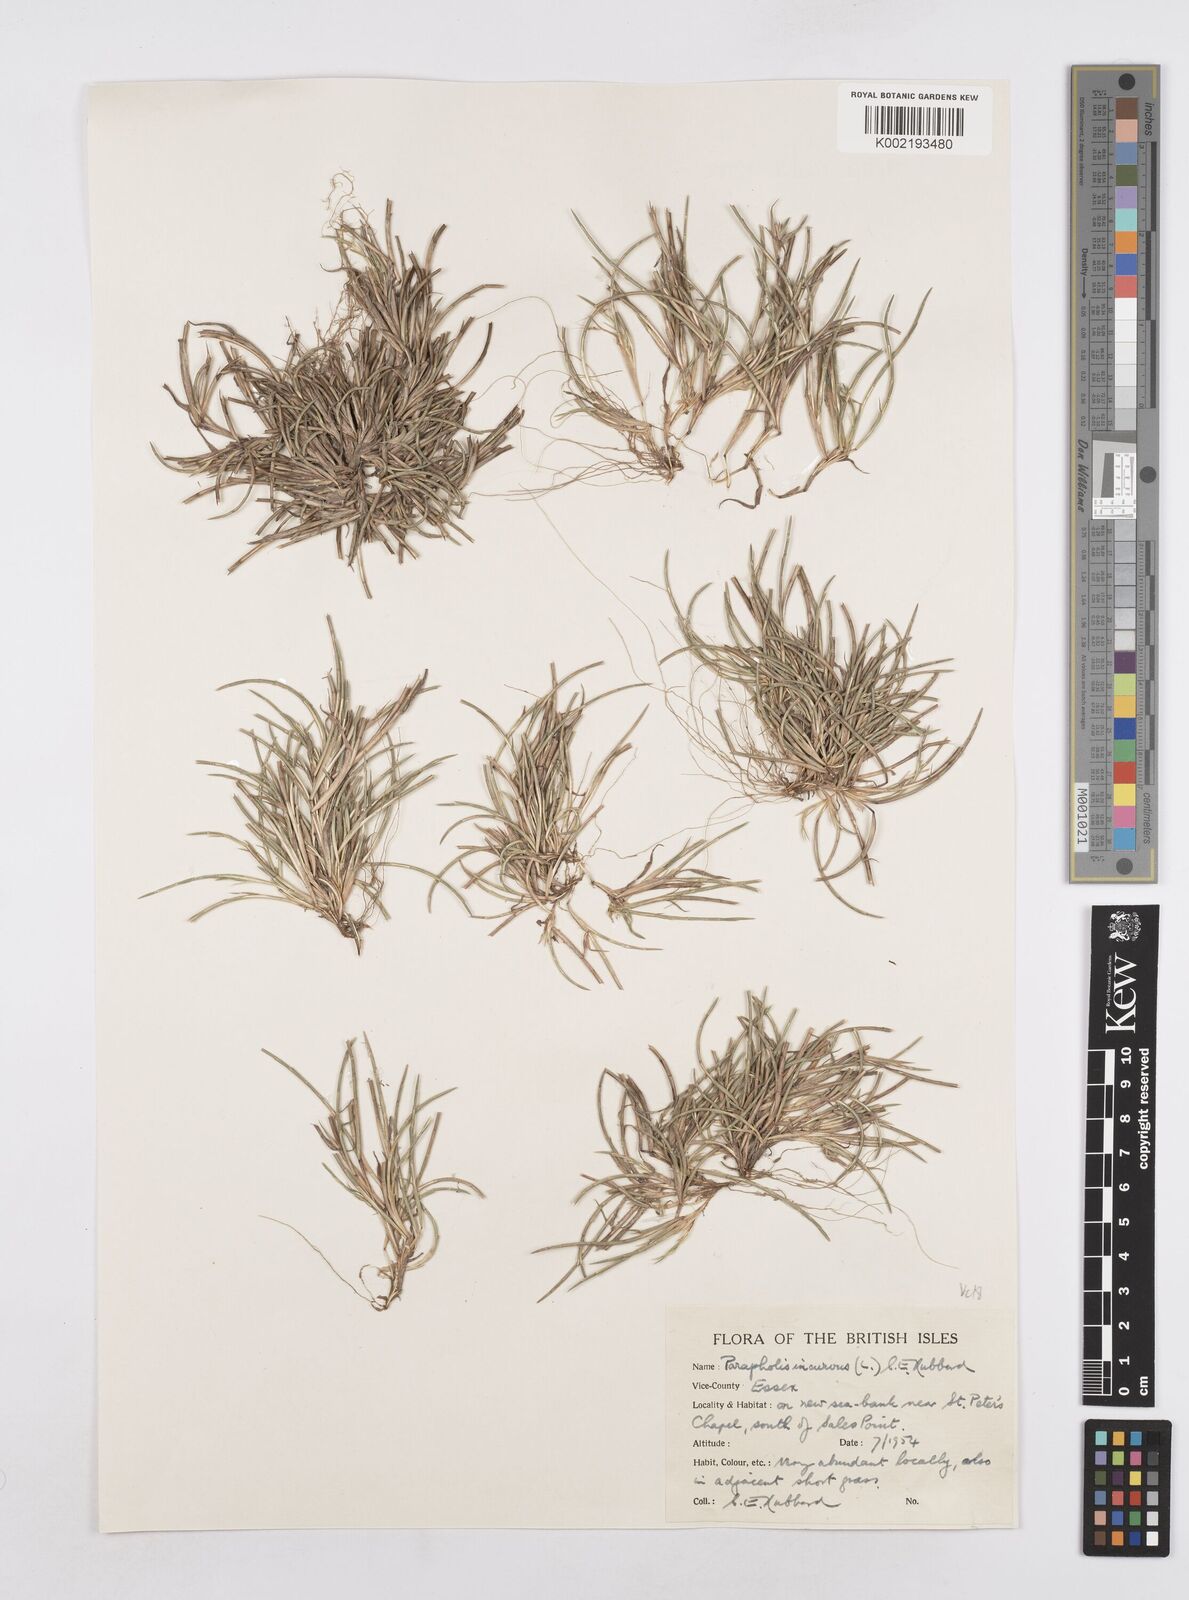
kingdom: Plantae
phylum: Tracheophyta
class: Liliopsida
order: Poales
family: Poaceae
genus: Parapholis
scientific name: Parapholis incurva
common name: Curved sicklegrass
